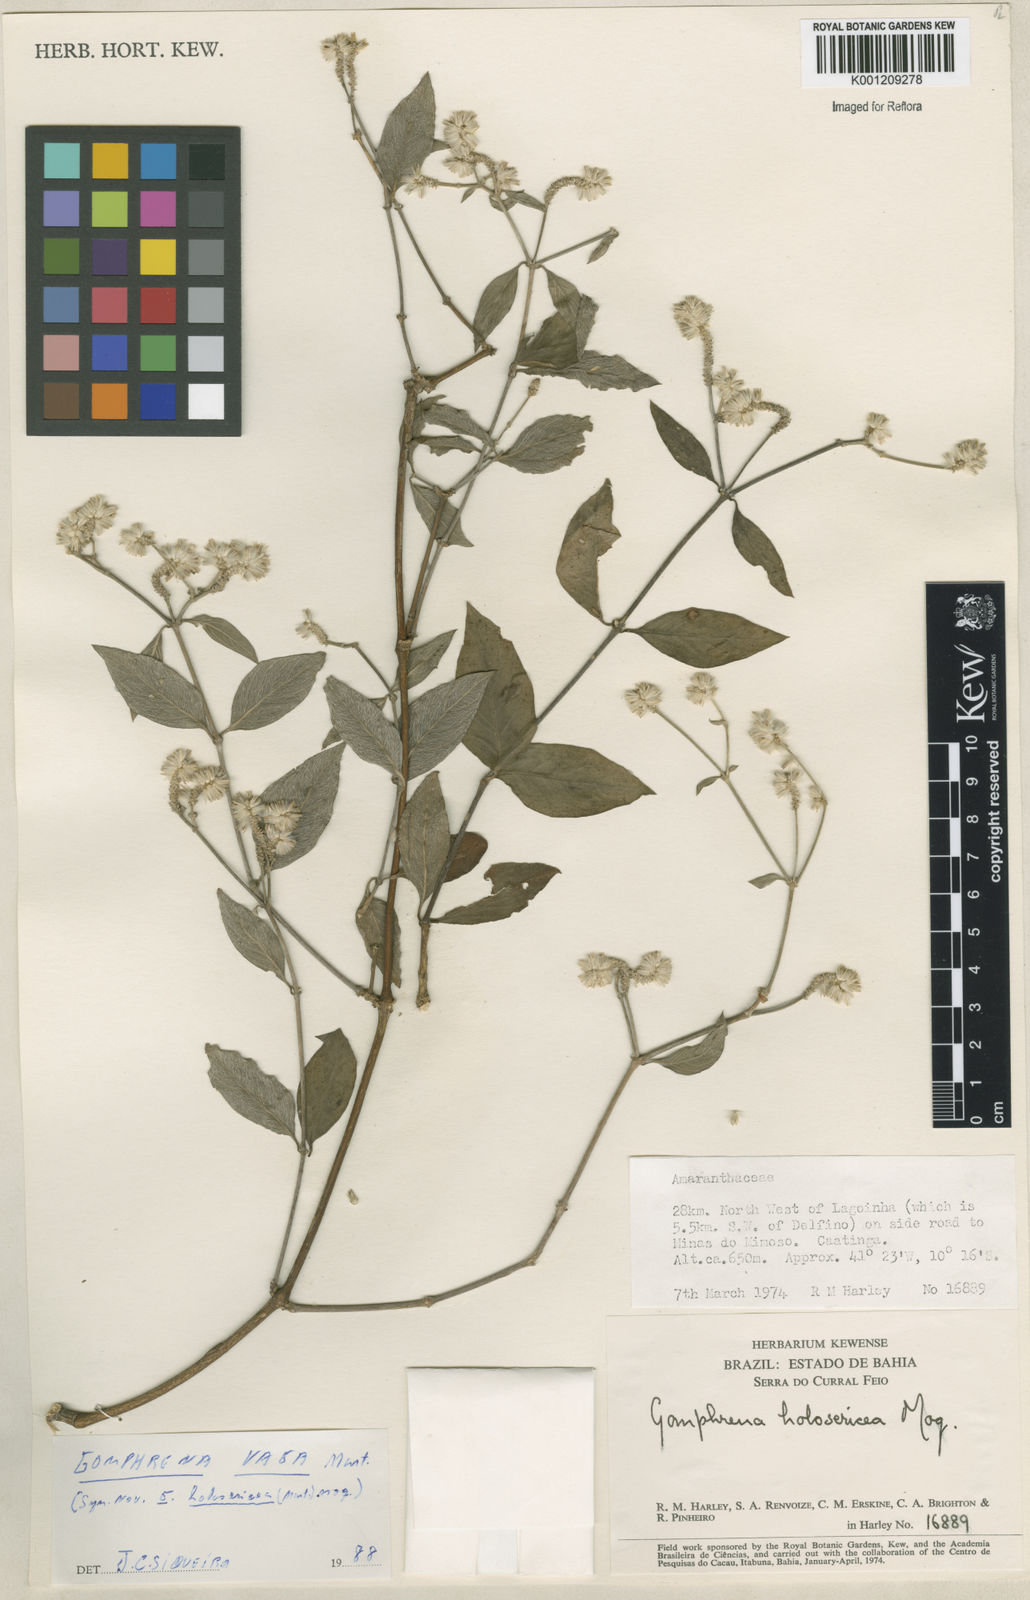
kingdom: Plantae
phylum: Tracheophyta
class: Magnoliopsida
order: Caryophyllales
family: Amaranthaceae
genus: Gomphrena
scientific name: Gomphrena vaga
